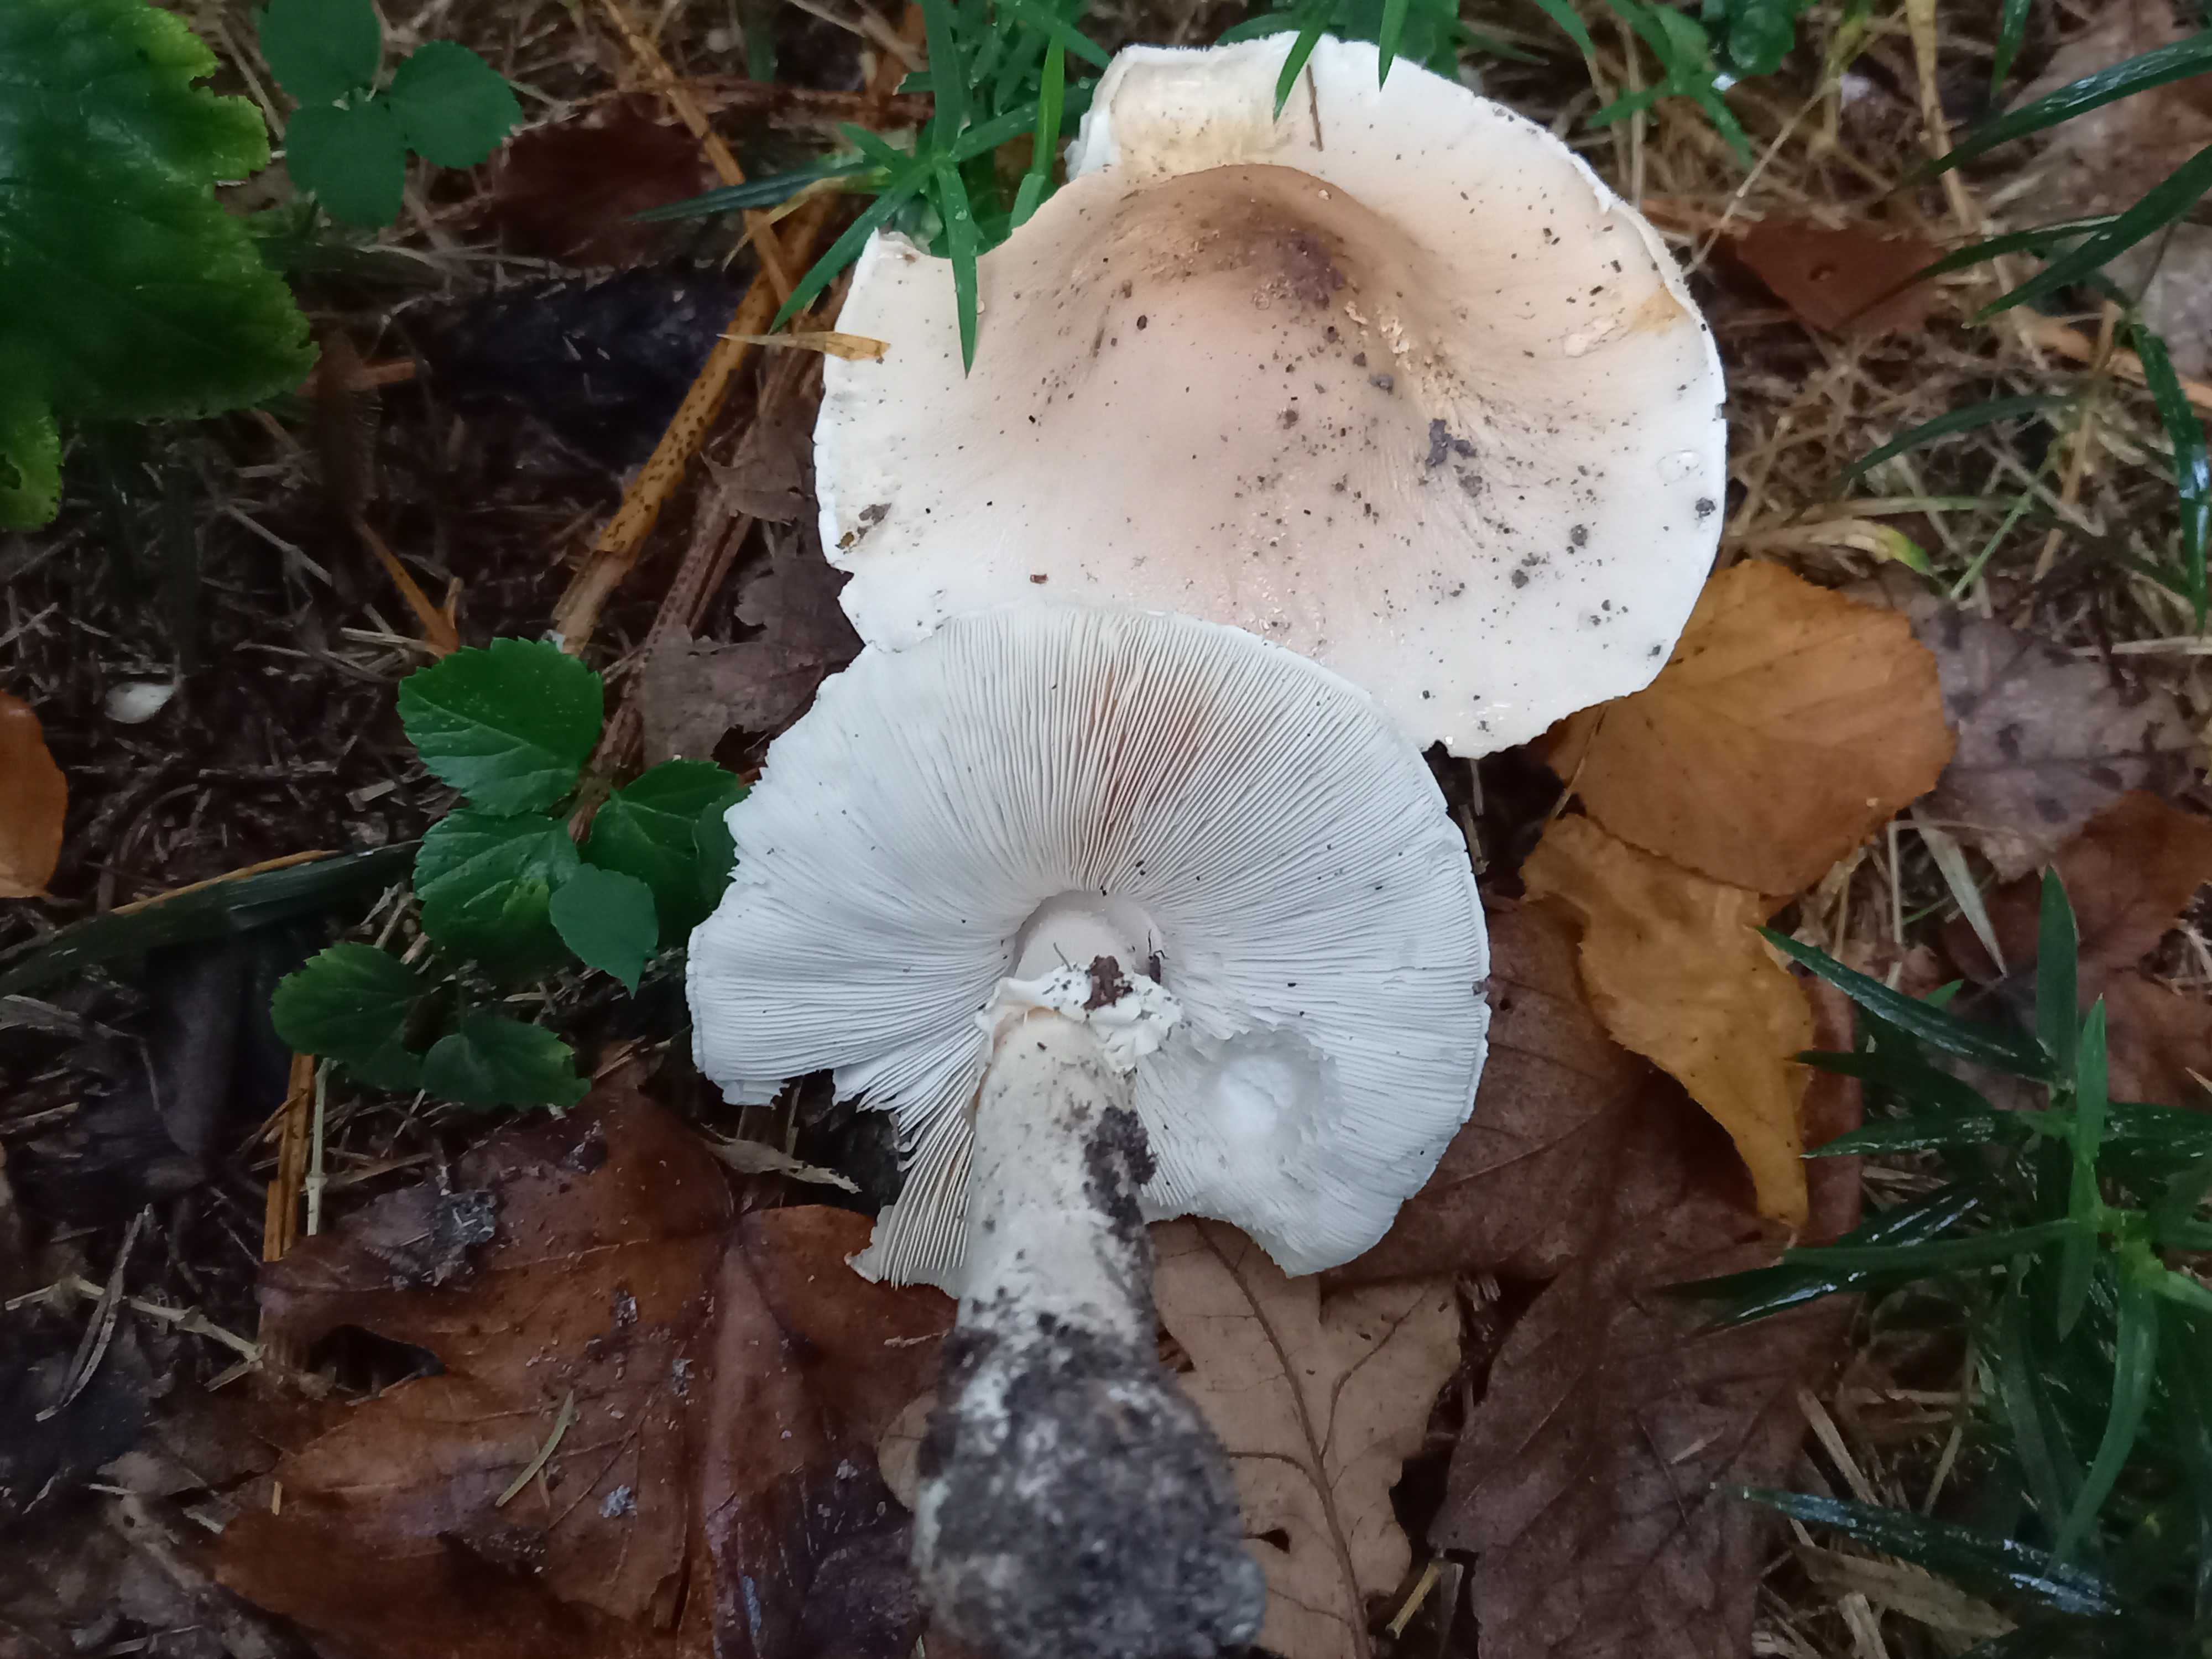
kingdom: Fungi
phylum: Basidiomycota
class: Agaricomycetes
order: Agaricales
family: Amanitaceae
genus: Limacellopsis
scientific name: Limacellopsis guttata
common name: tåre-snekkehat
